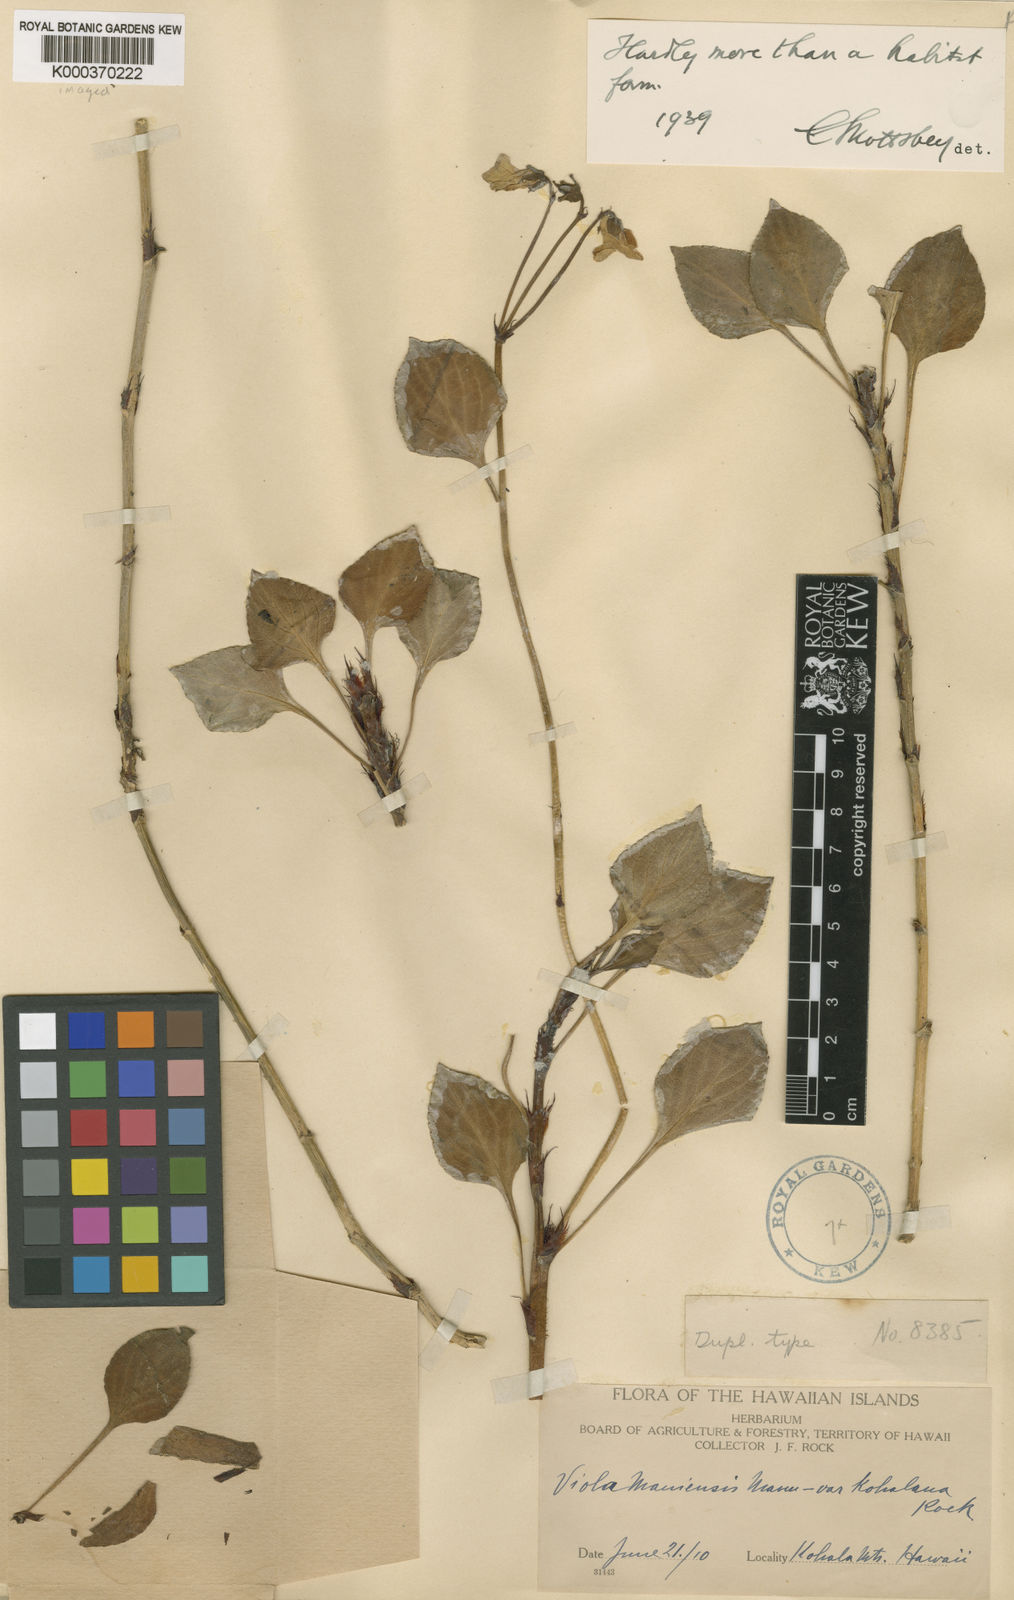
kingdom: Plantae
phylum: Tracheophyta
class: Magnoliopsida
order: Malpighiales
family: Violaceae
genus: Viola
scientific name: Viola maviensis
